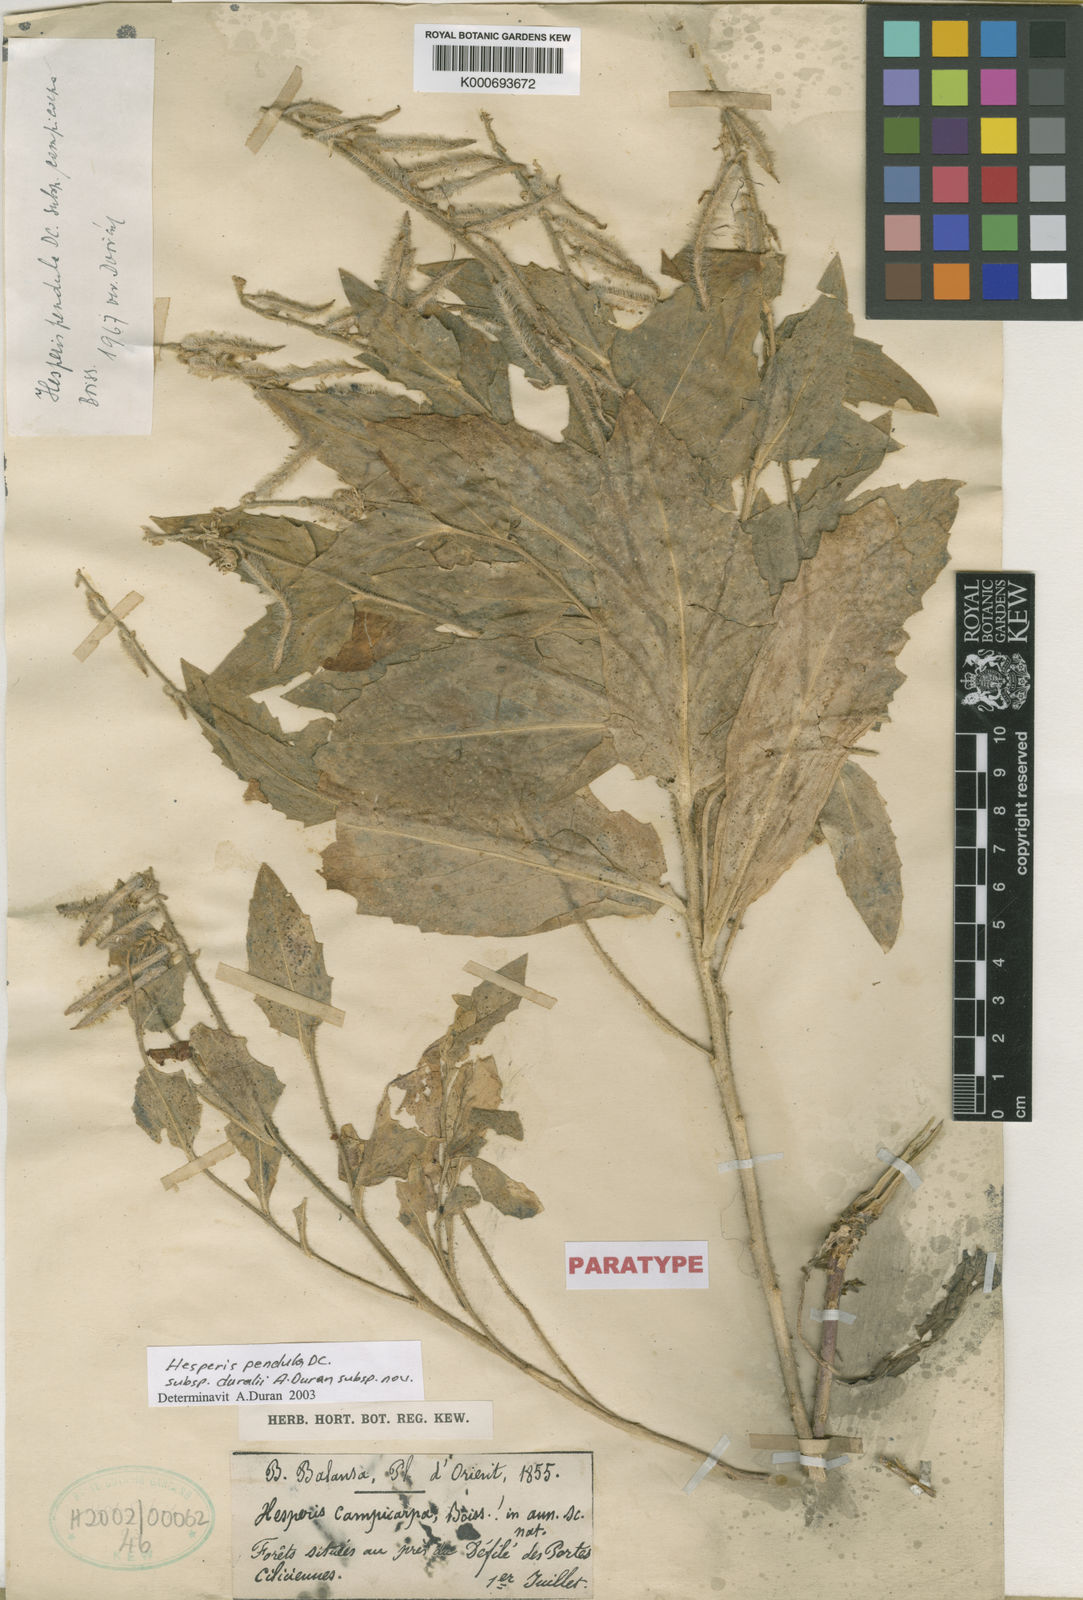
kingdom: Plantae
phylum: Tracheophyta
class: Magnoliopsida
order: Brassicales
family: Brassicaceae
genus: Hesperis
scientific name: Hesperis pendula
